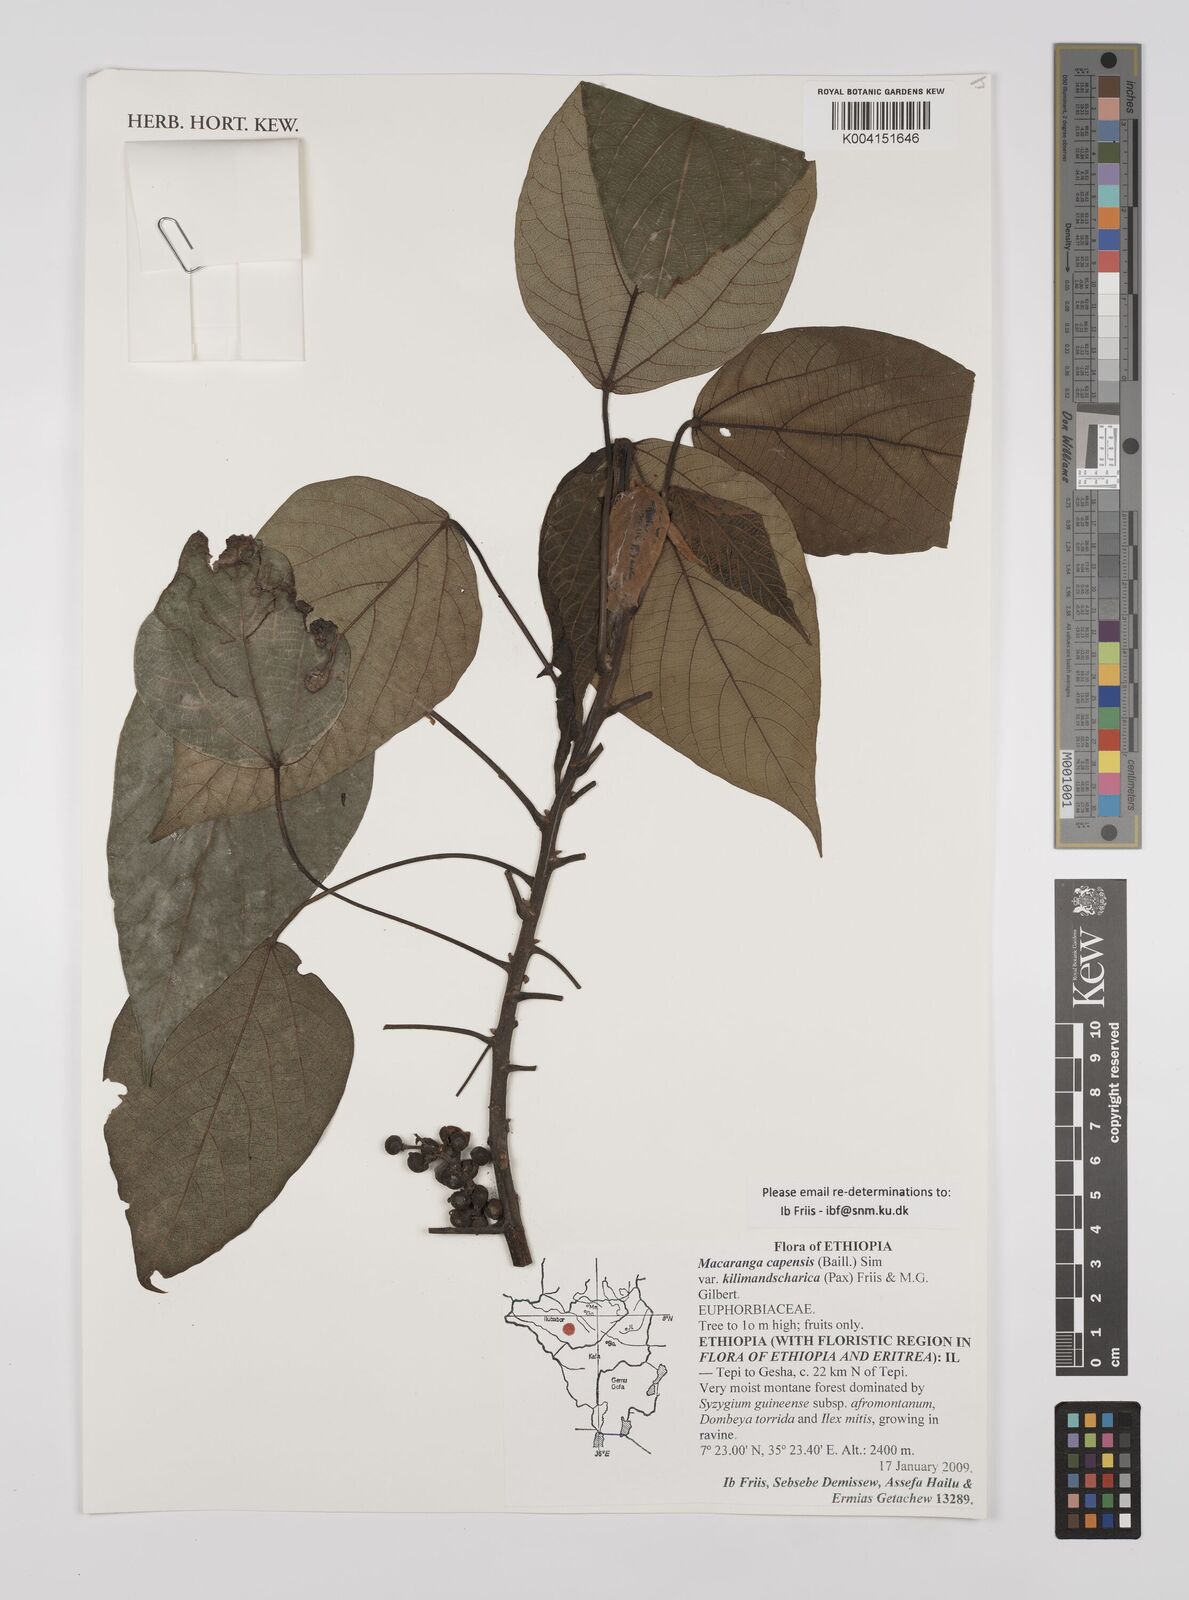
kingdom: Plantae
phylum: Tracheophyta
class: Magnoliopsida
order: Malpighiales
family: Euphorbiaceae
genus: Macaranga
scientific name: Macaranga capensis
